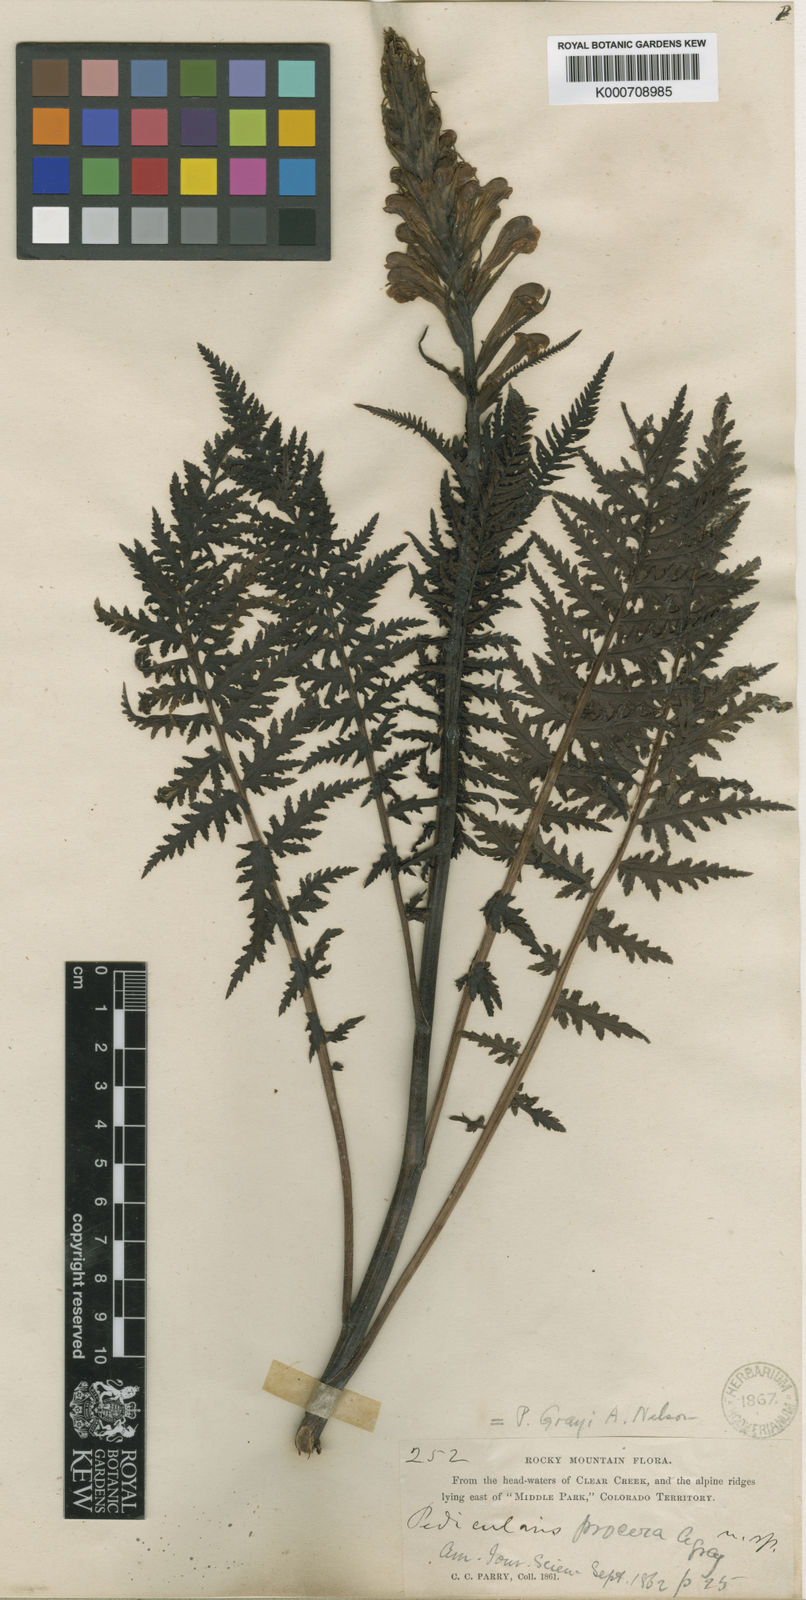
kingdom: Plantae
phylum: Tracheophyta
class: Magnoliopsida
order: Lamiales
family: Orobanchaceae
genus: Pedicularis
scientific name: Pedicularis procera
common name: Gray's lousewort
